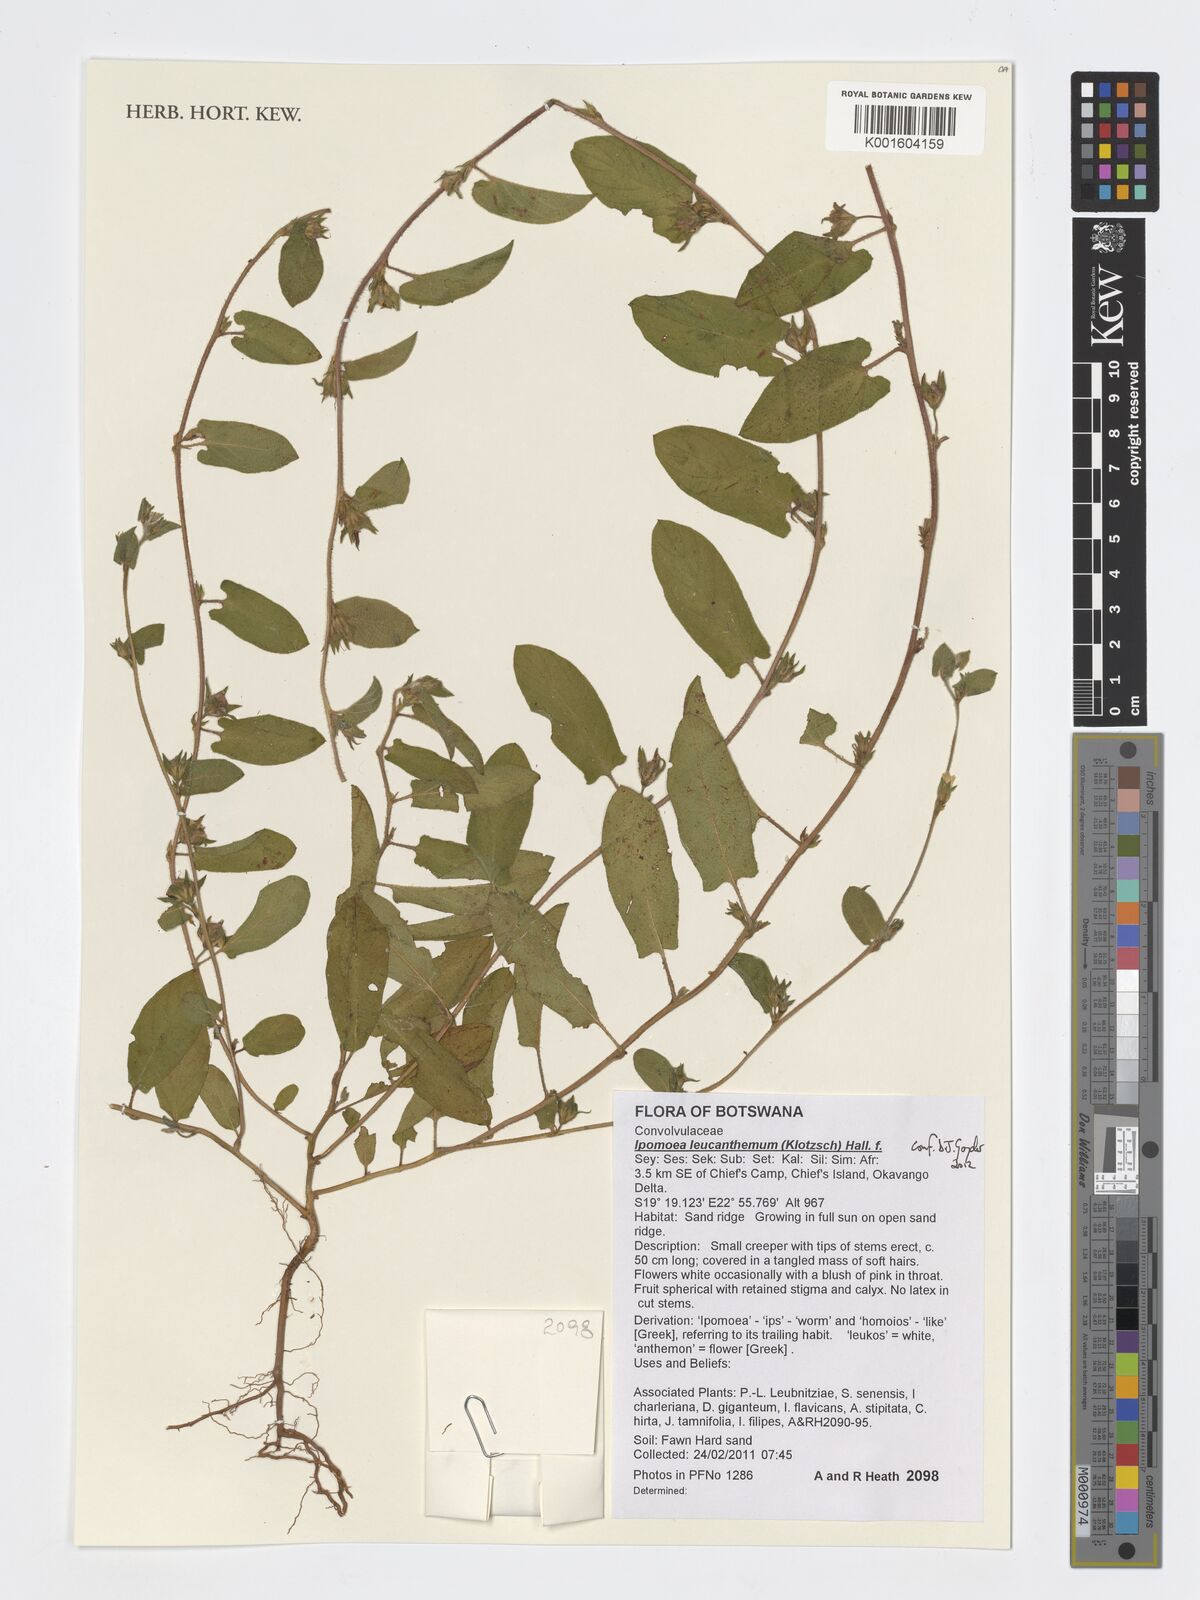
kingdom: Plantae
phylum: Tracheophyta
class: Magnoliopsida
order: Solanales
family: Convolvulaceae
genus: Ipomoea
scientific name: Ipomoea leucanthemum
